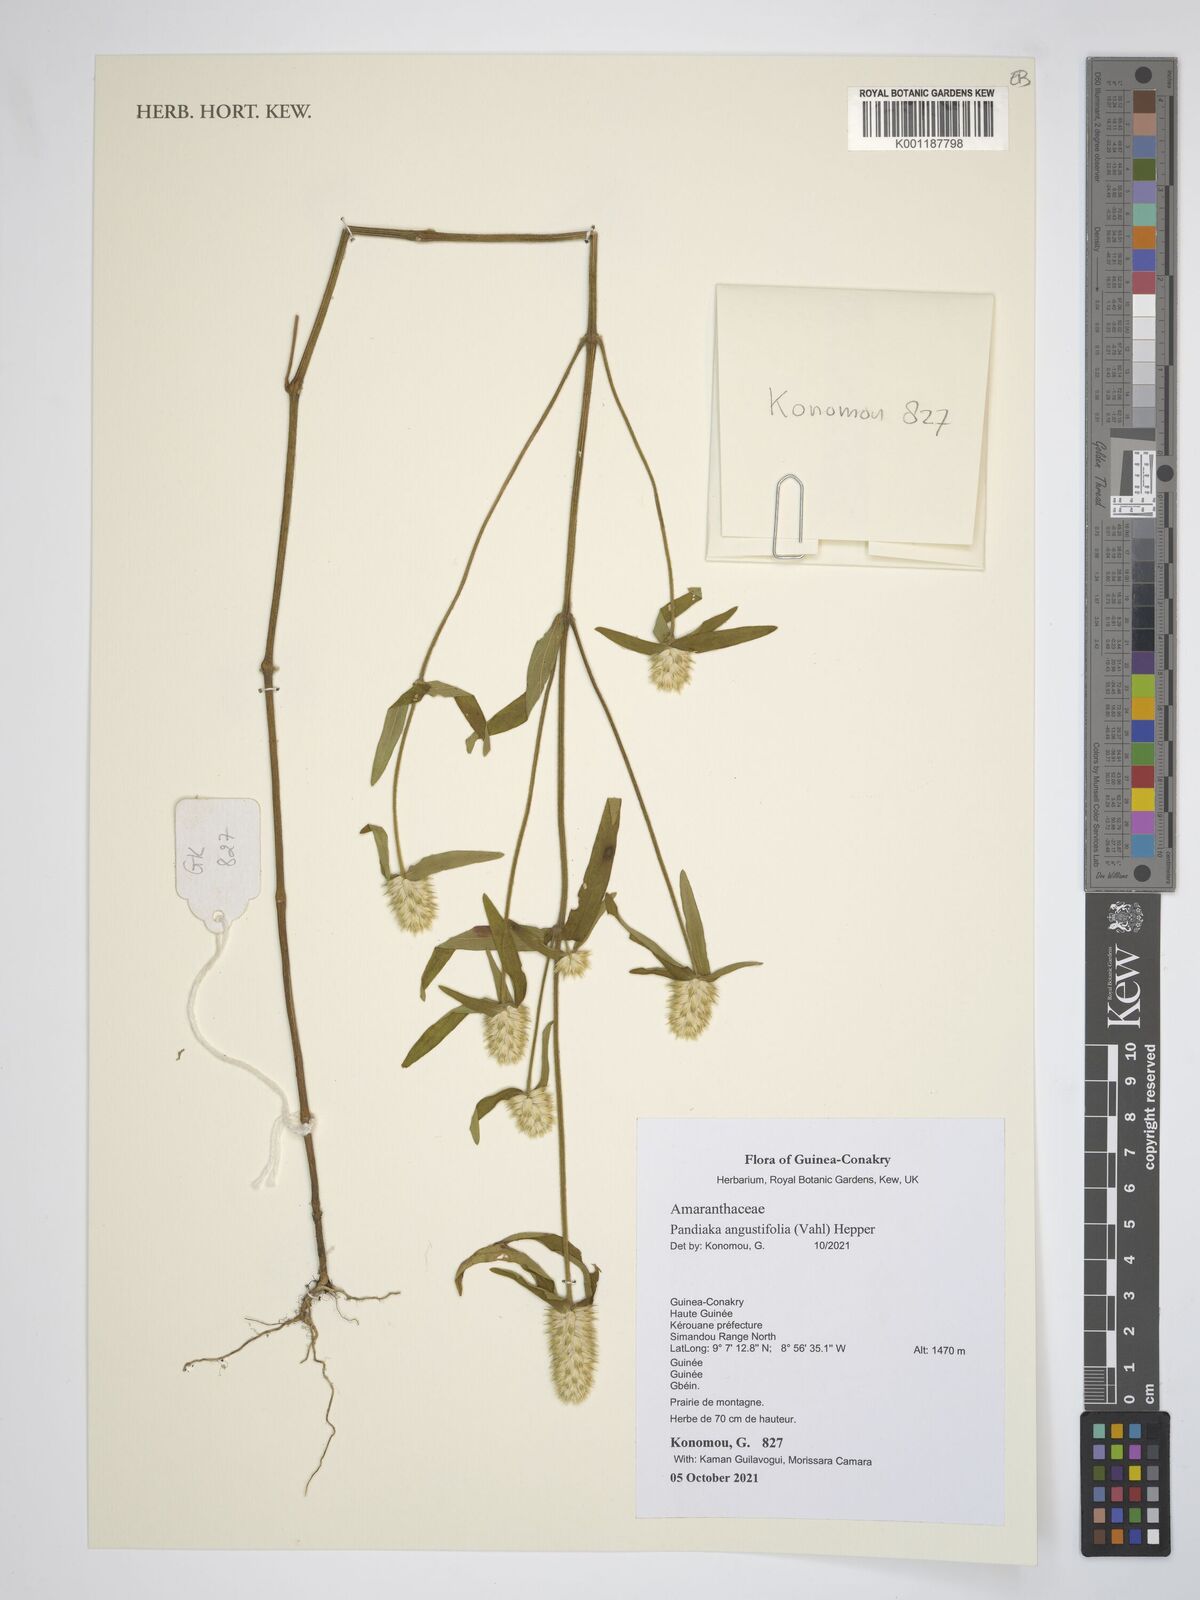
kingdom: Plantae
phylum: Tracheophyta
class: Magnoliopsida
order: Caryophyllales
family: Amaranthaceae
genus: Pandiaka
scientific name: Pandiaka angustifolia
